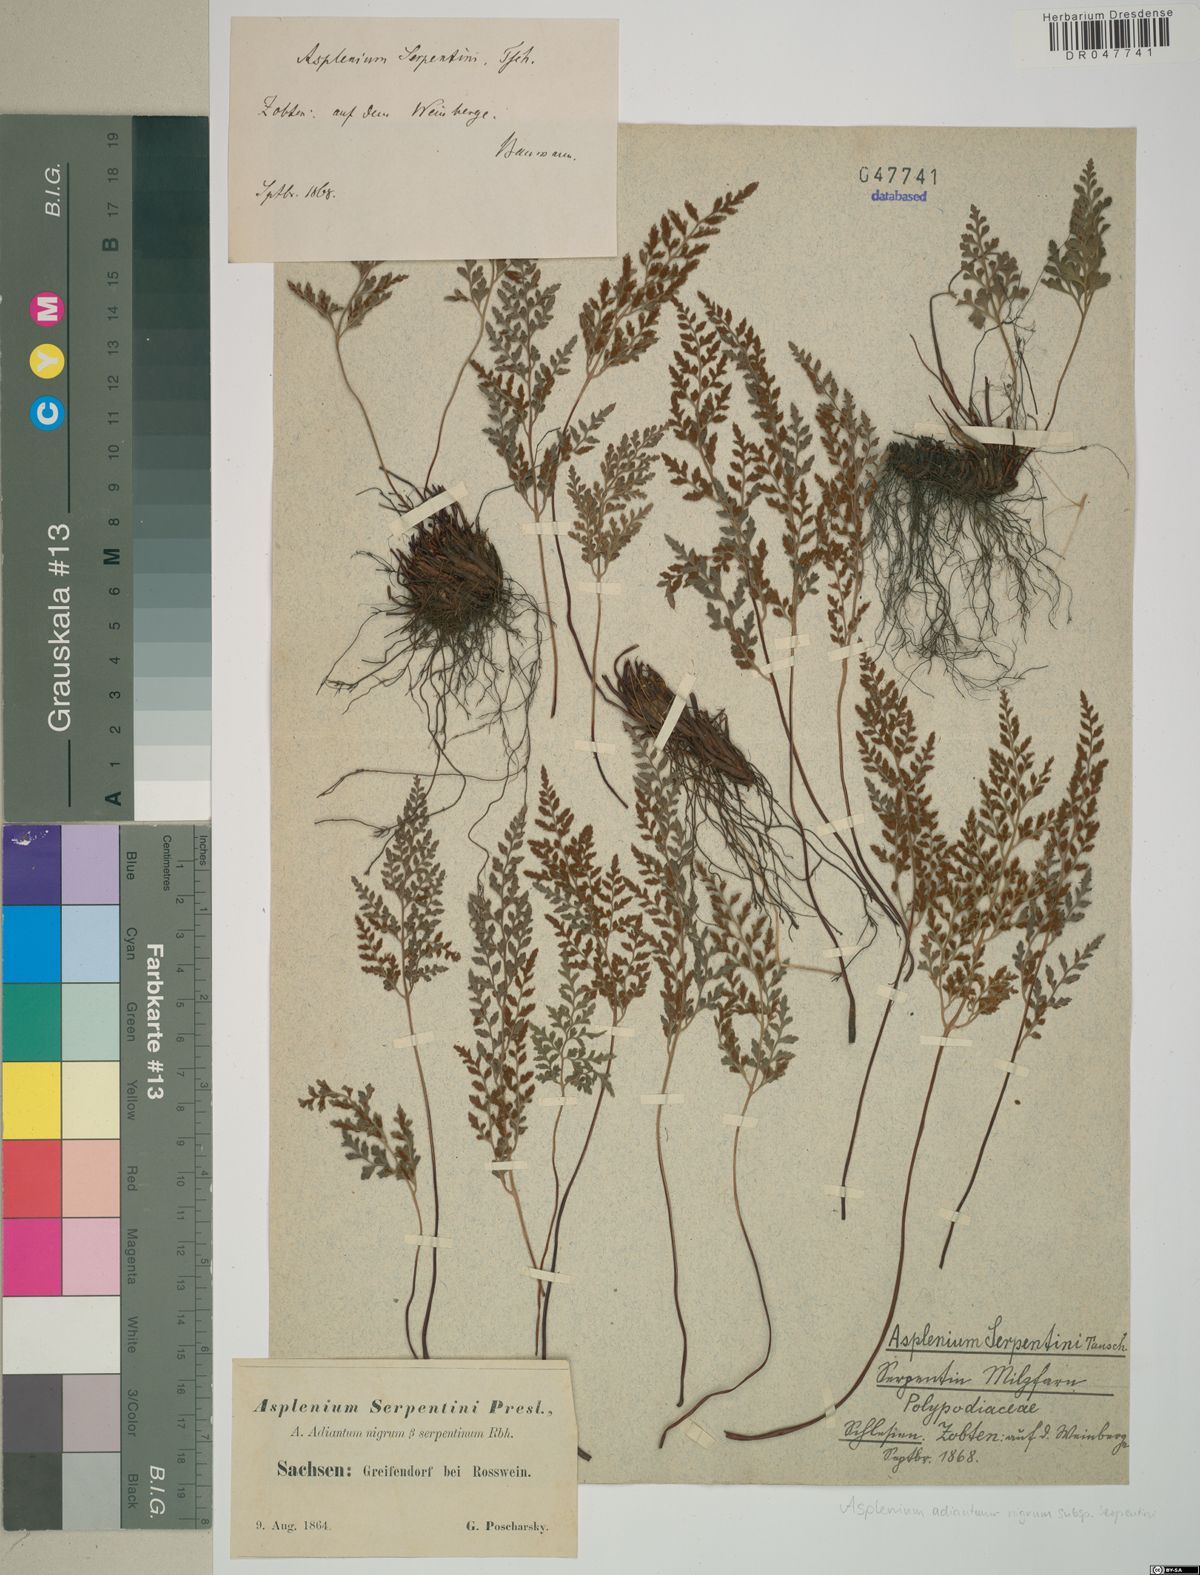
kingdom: Plantae
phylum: Tracheophyta
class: Polypodiopsida
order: Polypodiales
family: Aspleniaceae
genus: Asplenium
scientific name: Asplenium cuneifolium
